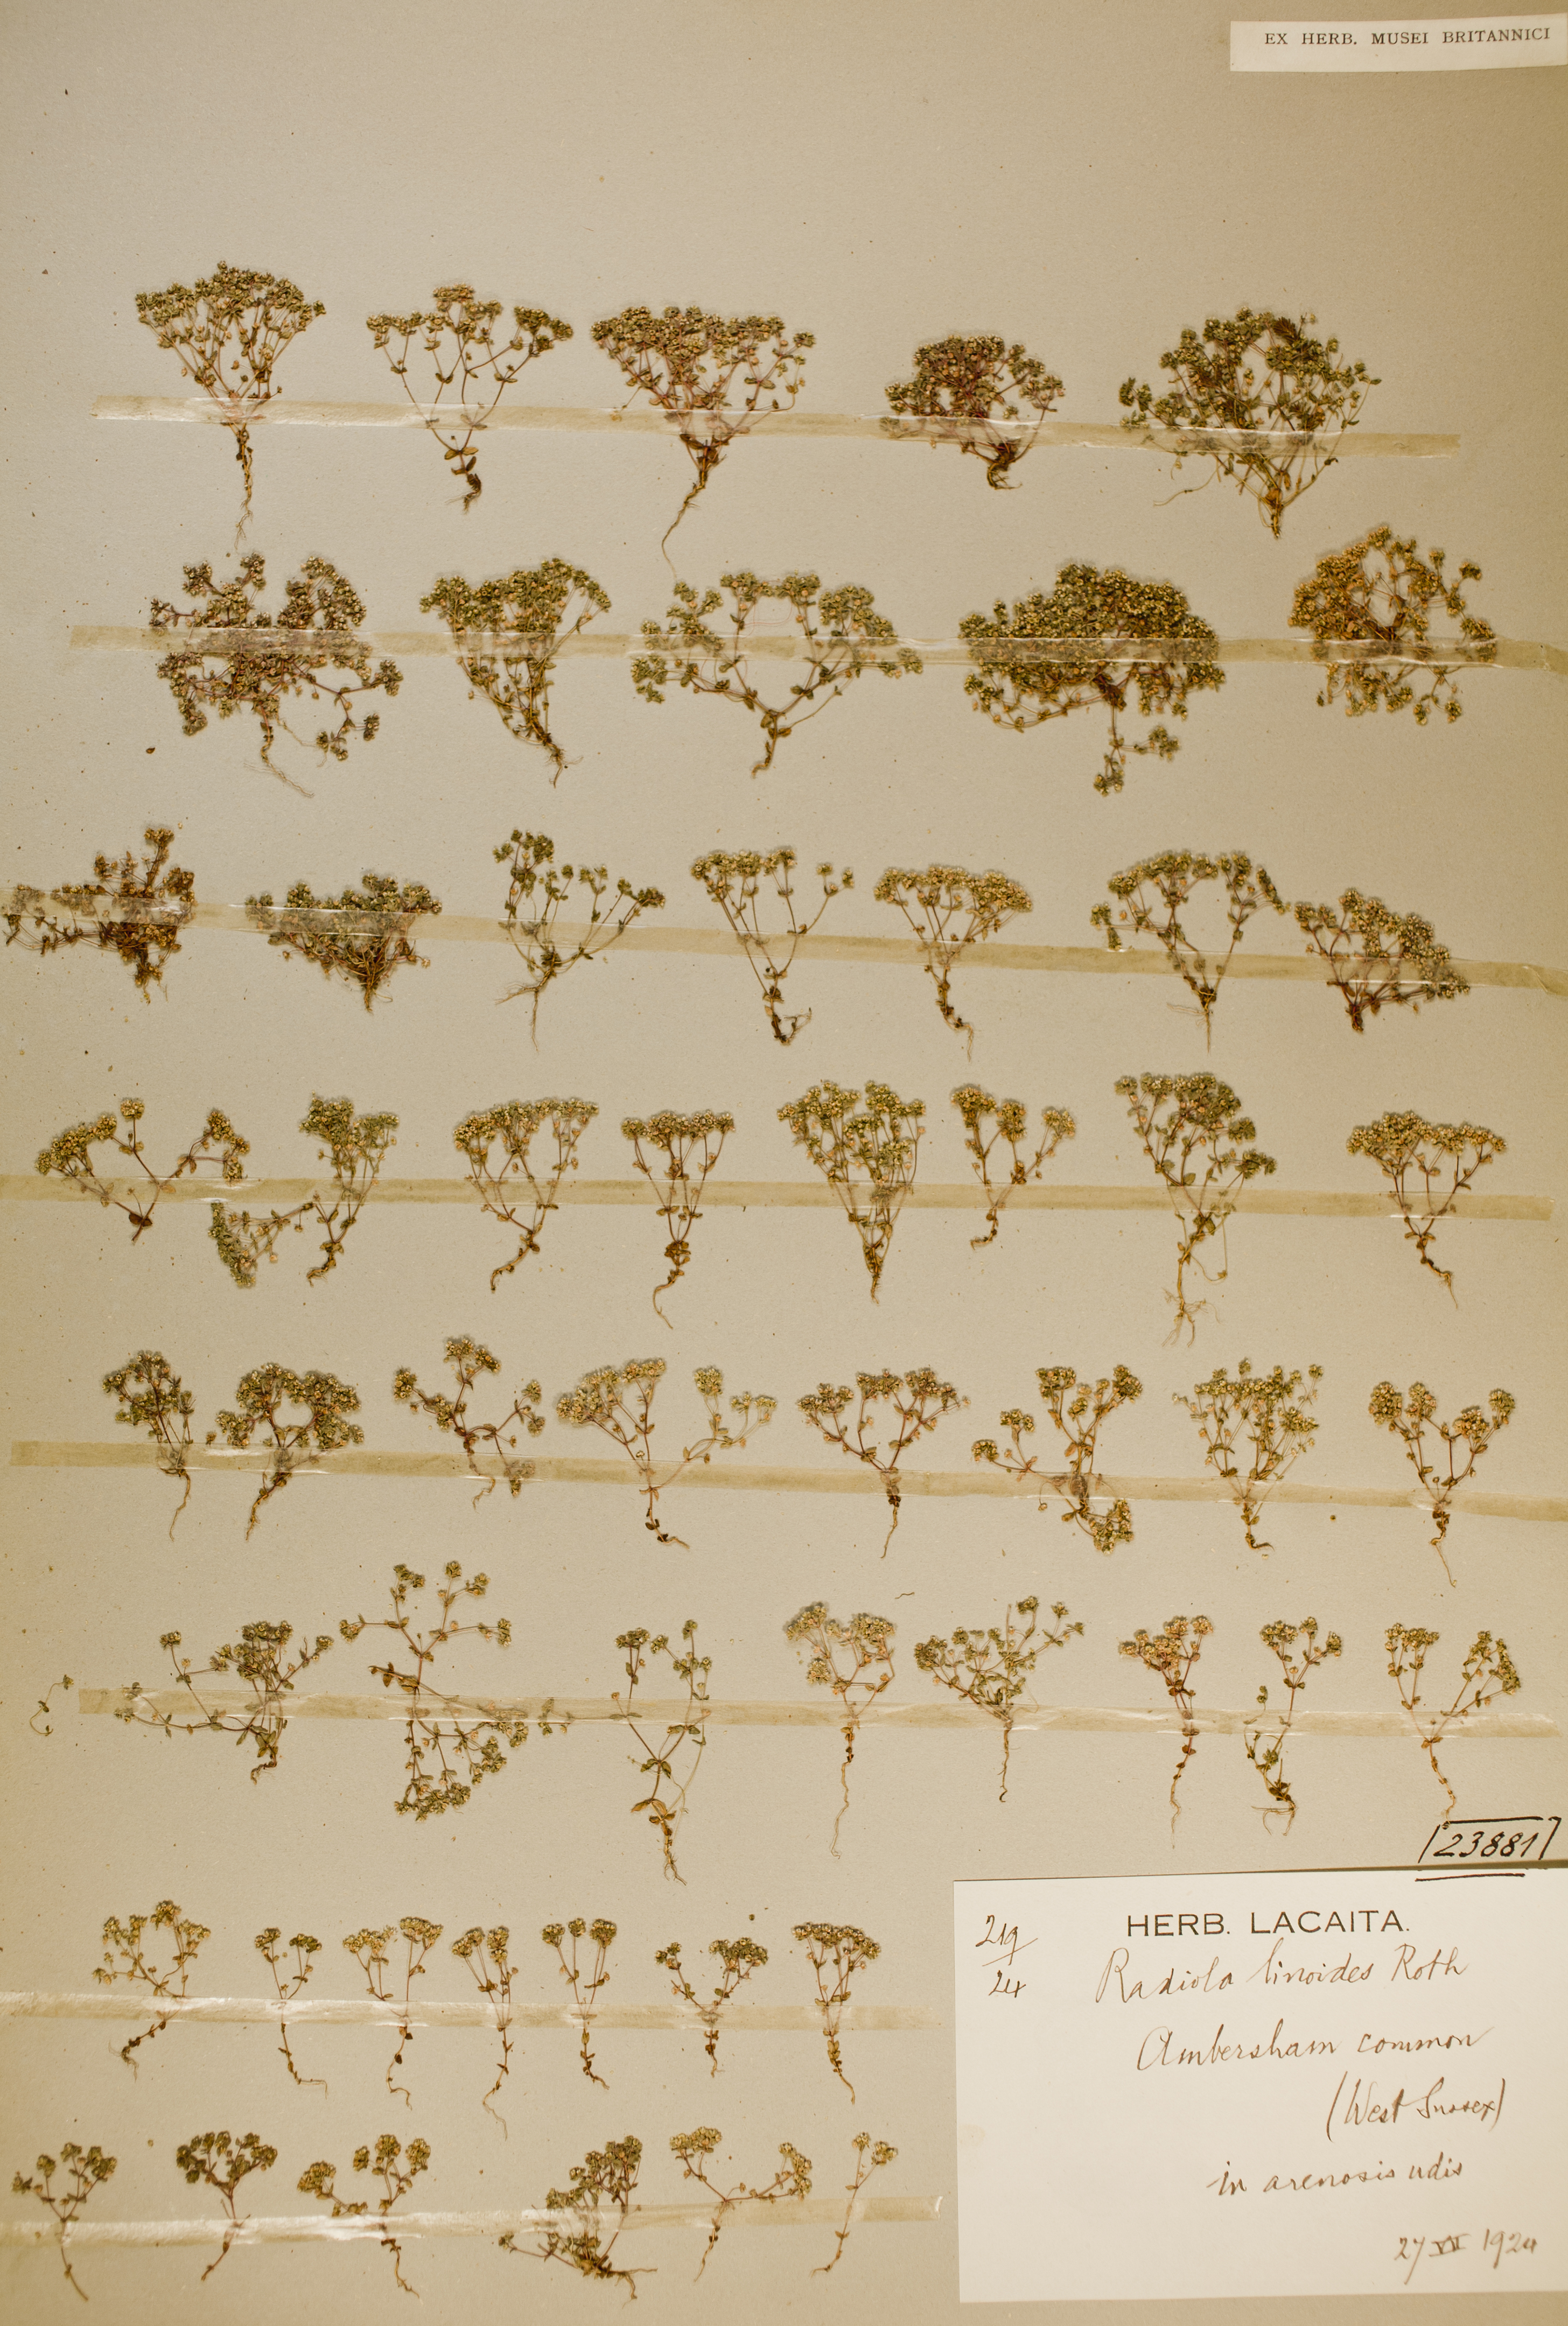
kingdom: Plantae
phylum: Tracheophyta
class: Magnoliopsida
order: Malpighiales
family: Linaceae
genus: Radiola
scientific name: Radiola linoides
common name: Allseed
